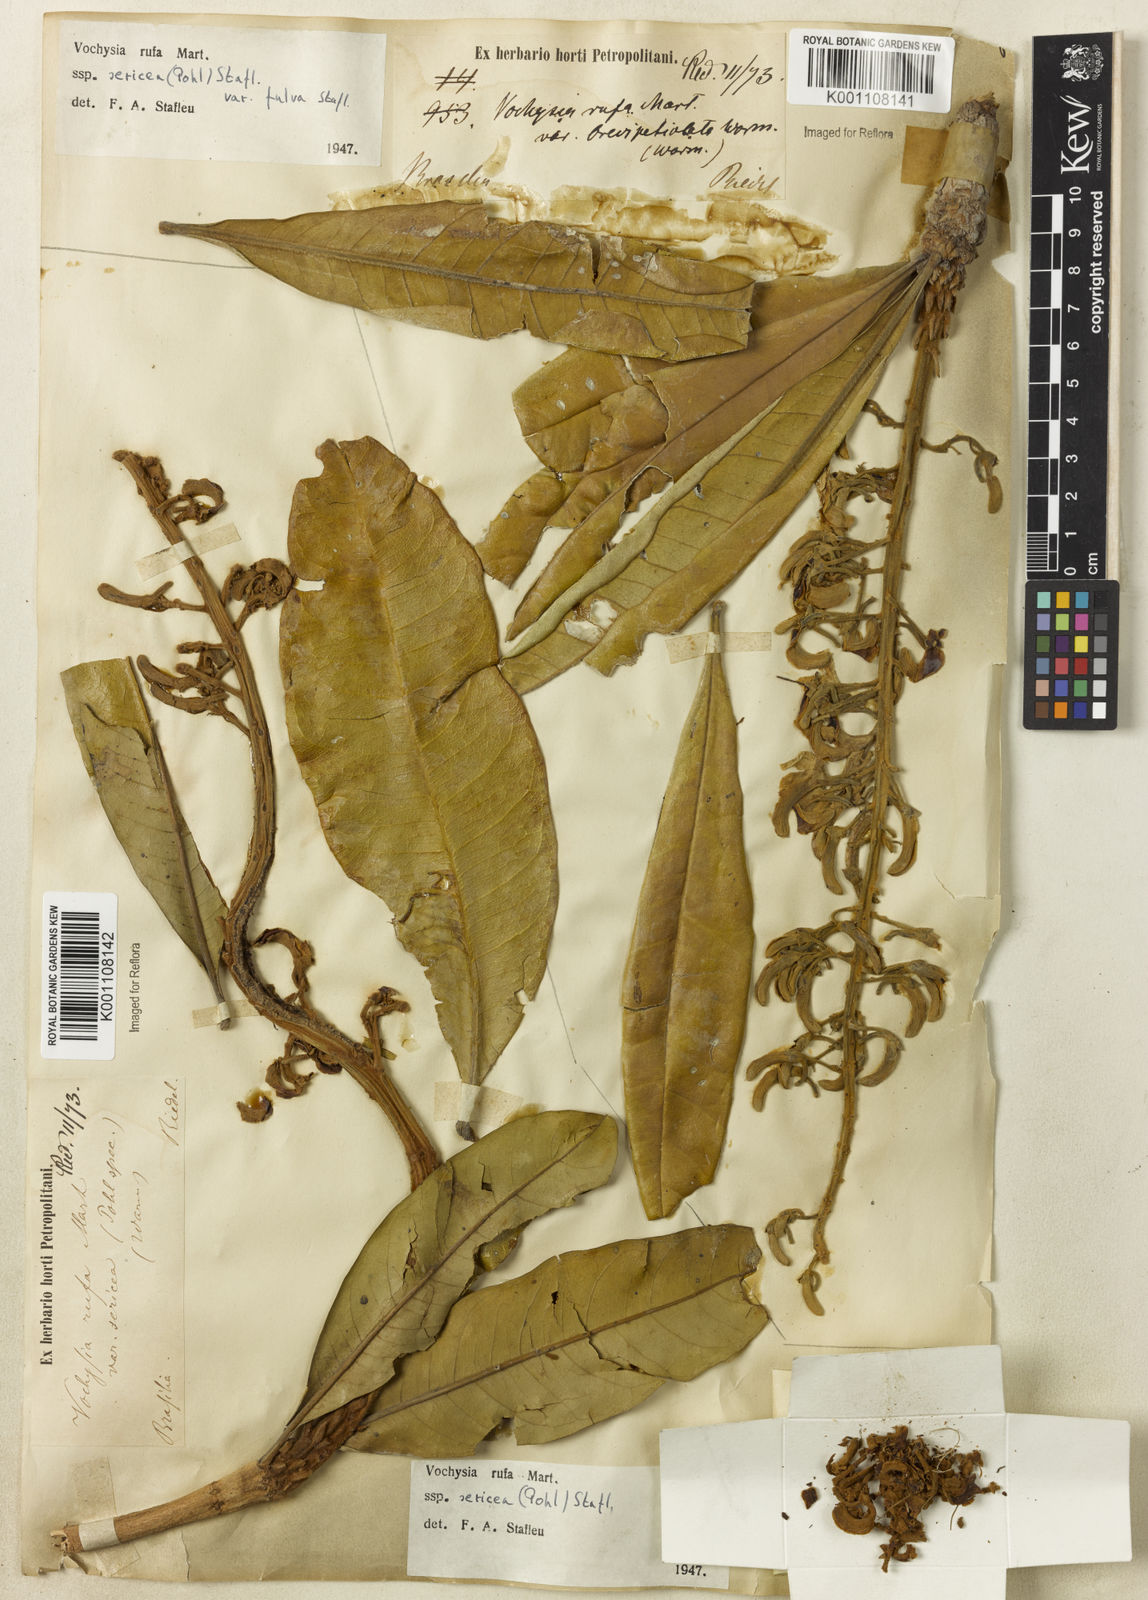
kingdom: Plantae
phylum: Tracheophyta
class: Magnoliopsida
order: Myrtales
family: Vochysiaceae
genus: Vochysia
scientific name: Vochysia rufa
